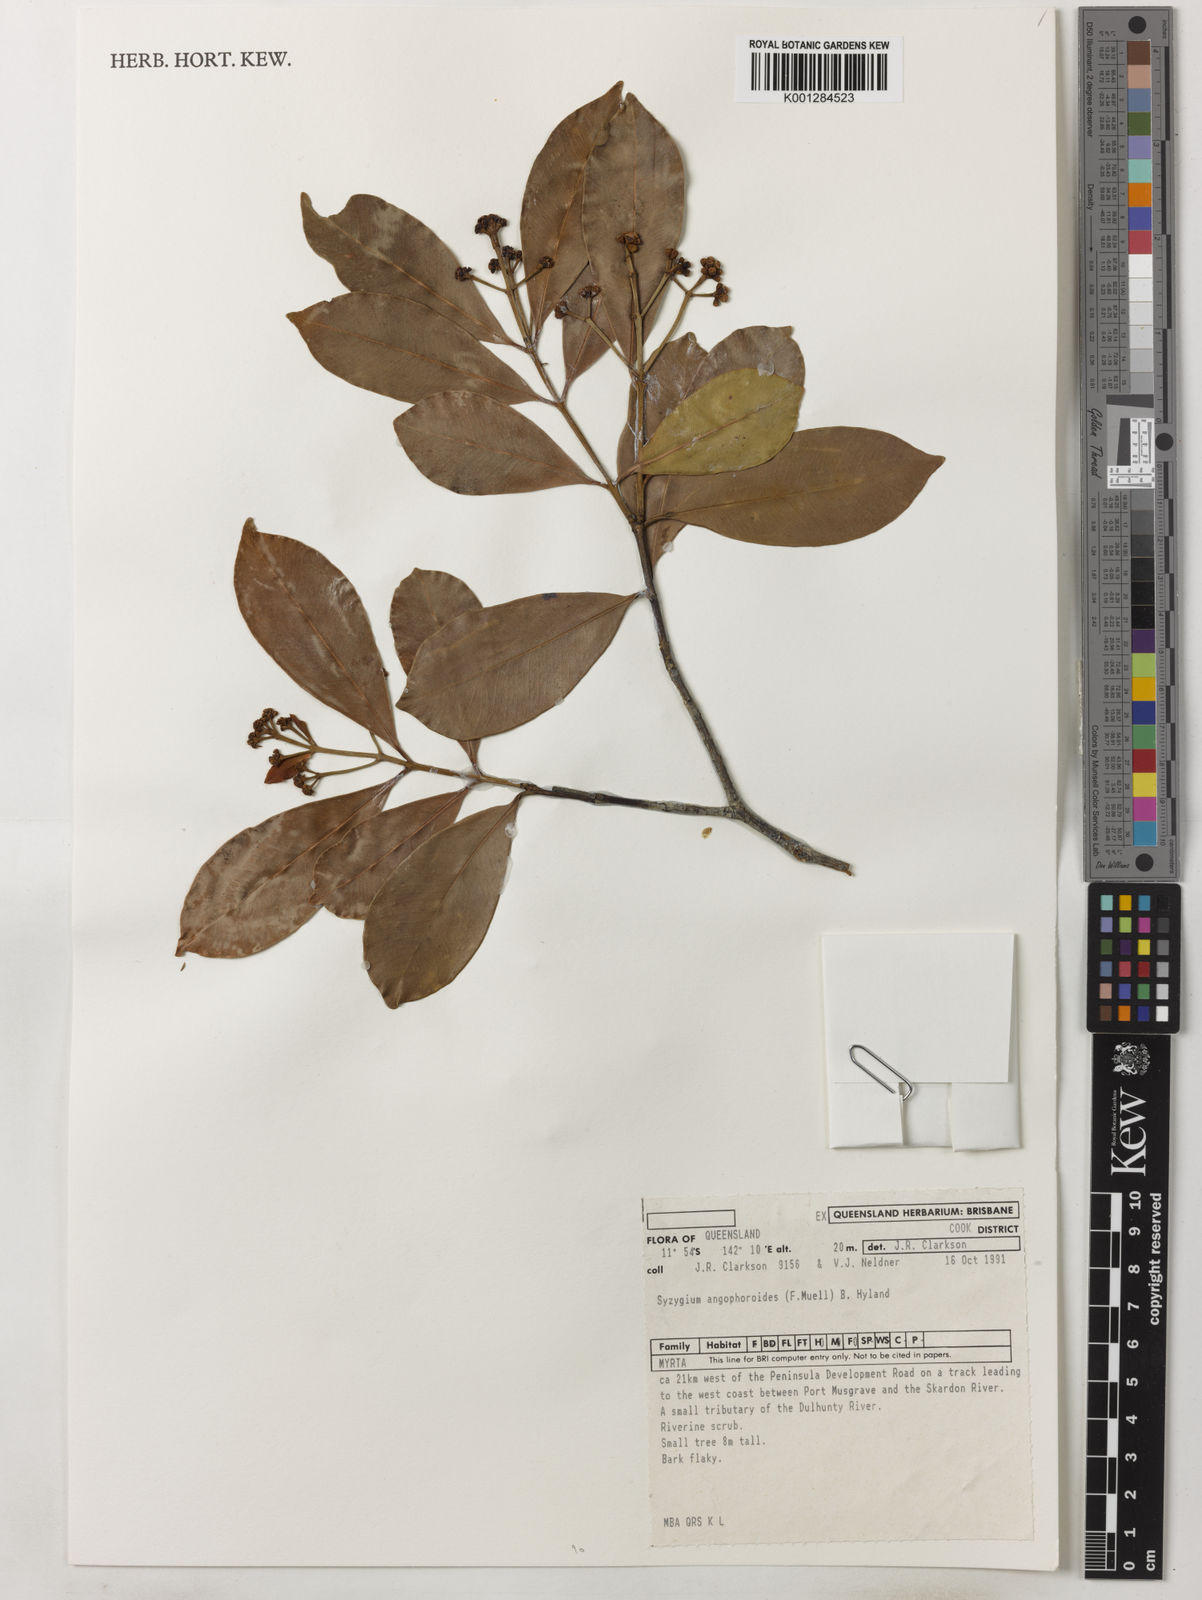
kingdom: Plantae
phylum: Tracheophyta
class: Magnoliopsida
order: Myrtales
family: Myrtaceae
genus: Syzygium
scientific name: Syzygium angophoroides
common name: Swamp satinash
